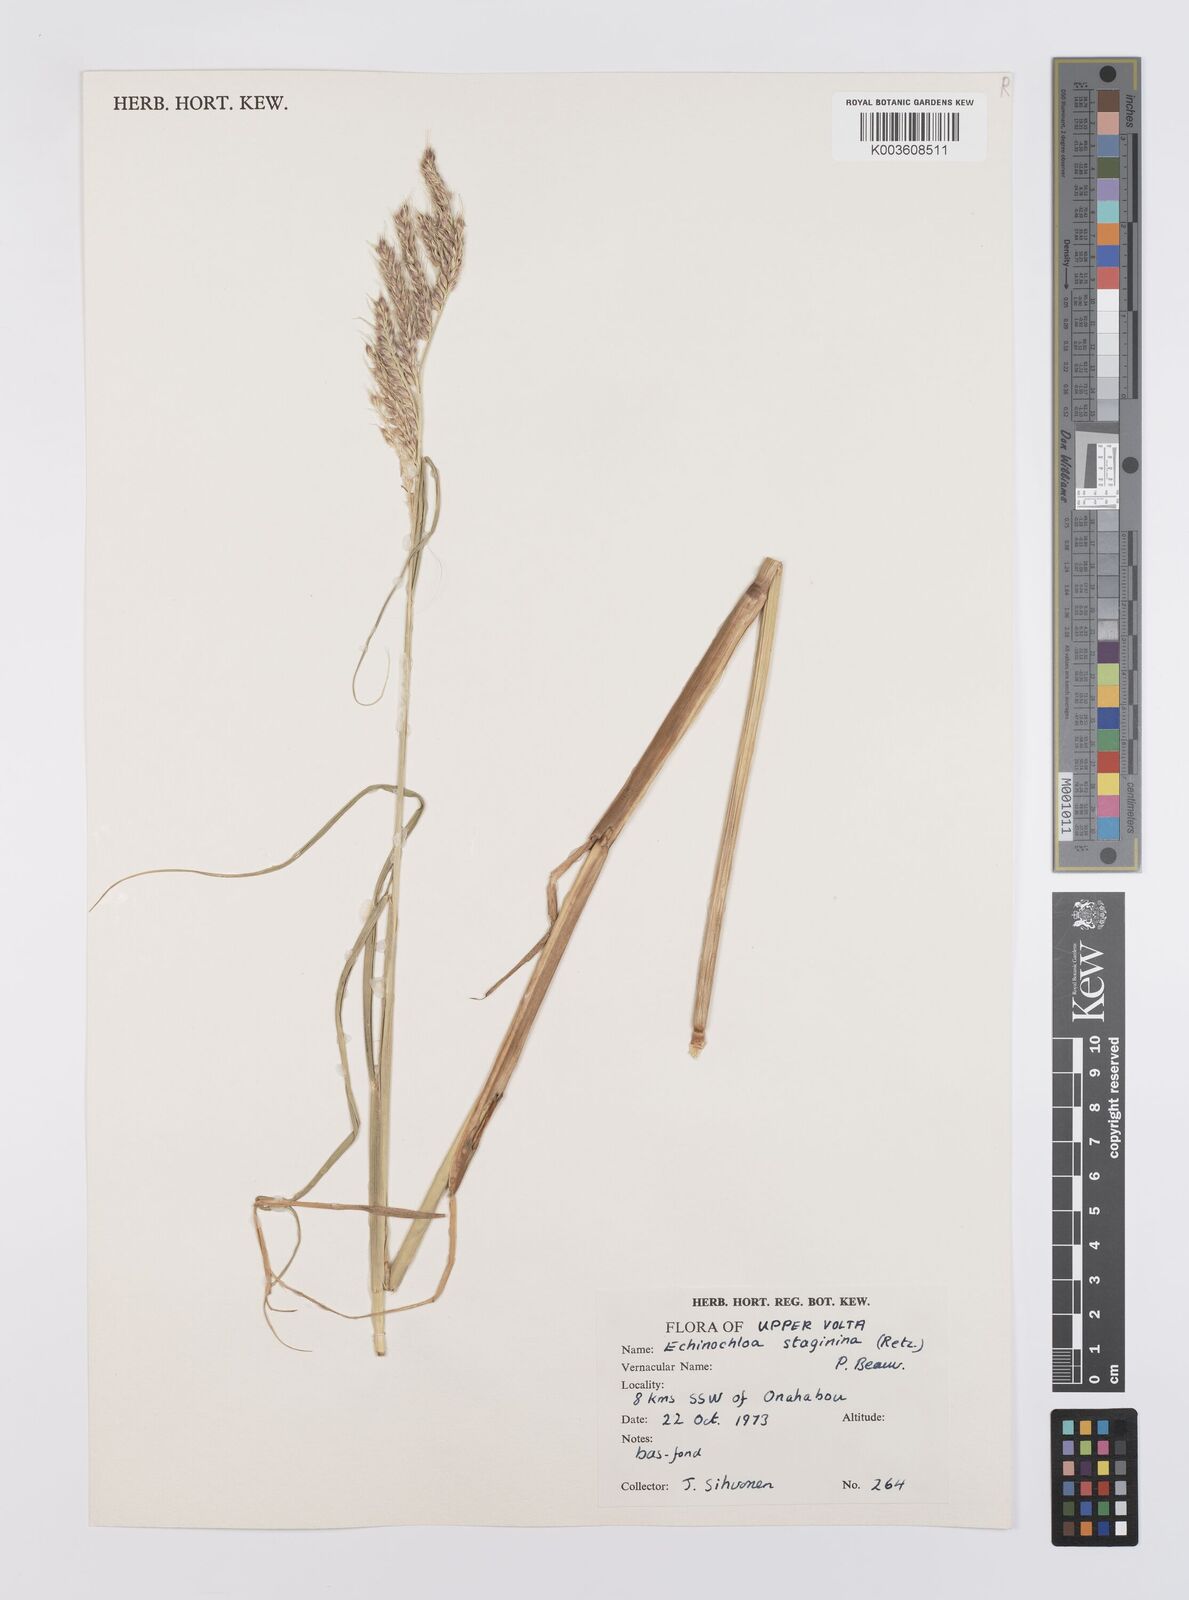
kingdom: Plantae
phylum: Tracheophyta
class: Liliopsida
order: Poales
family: Poaceae
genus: Echinochloa
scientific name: Echinochloa stagnina
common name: Burgu grass
